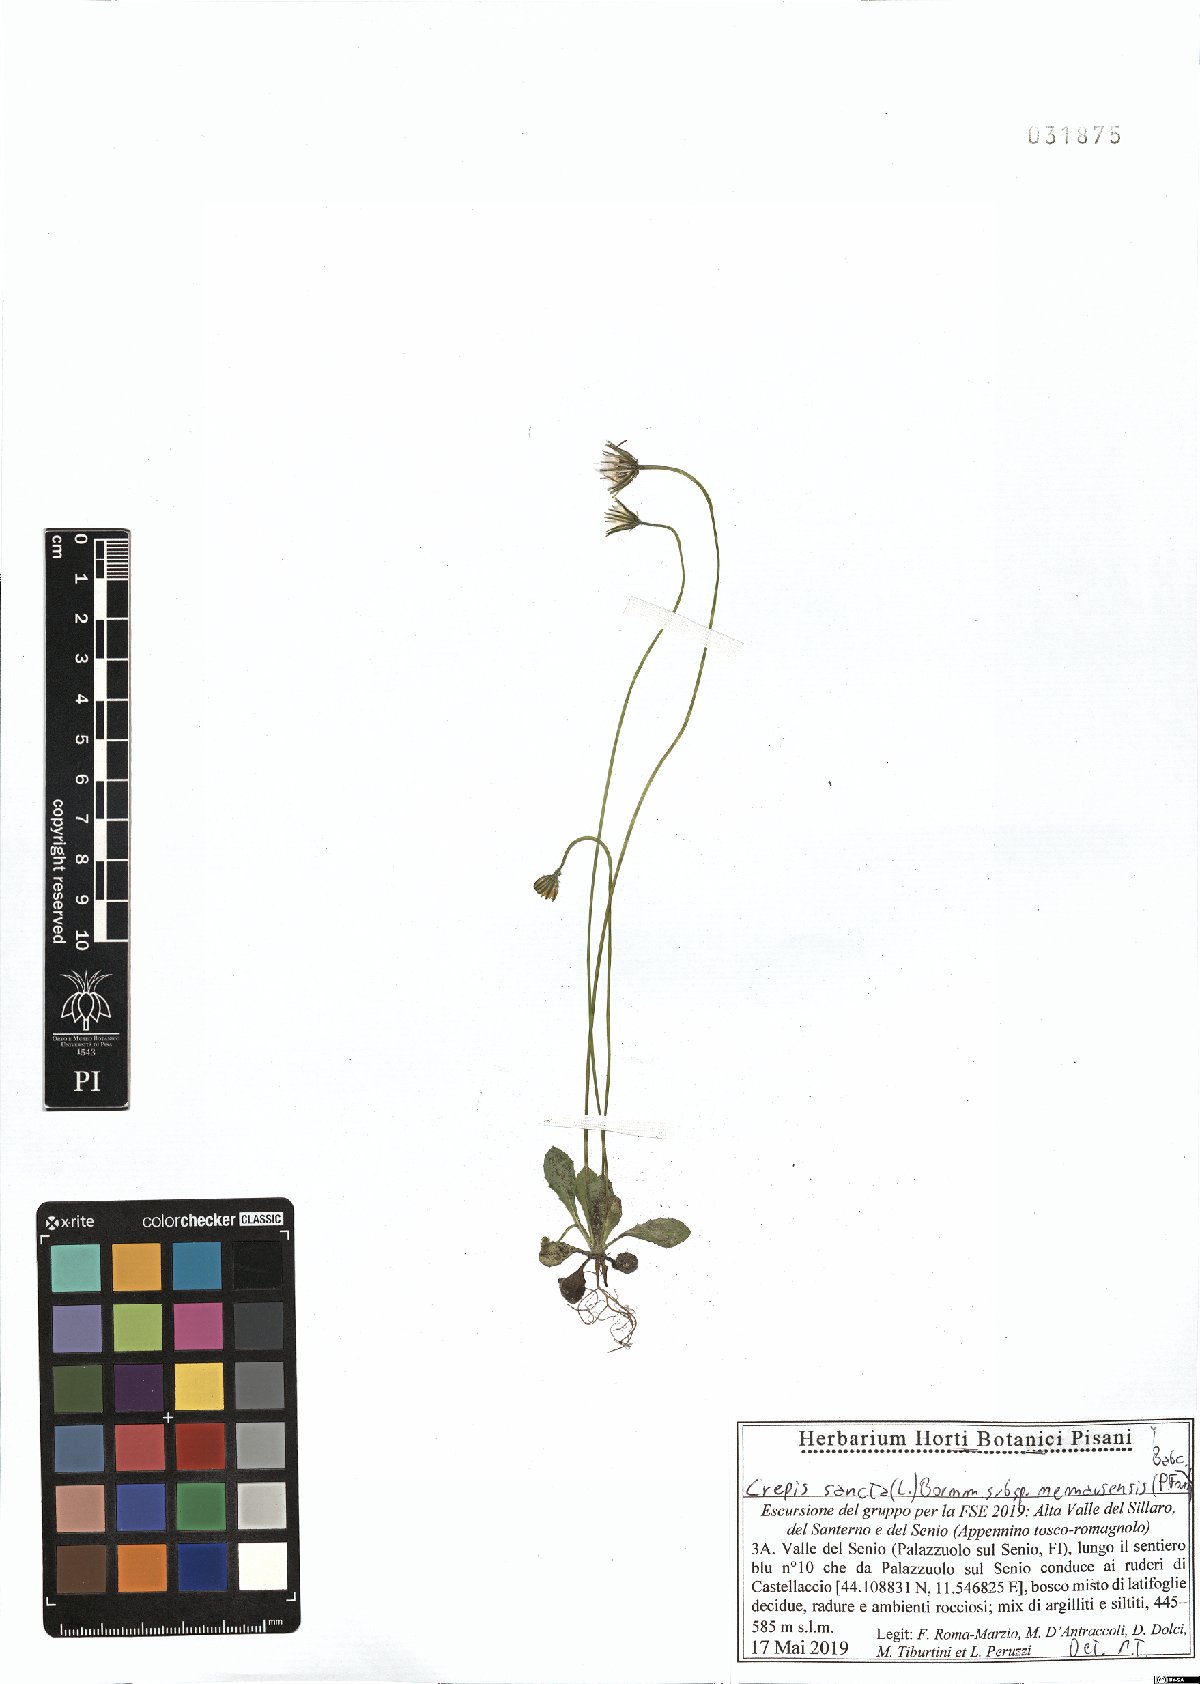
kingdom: Plantae
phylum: Tracheophyta
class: Magnoliopsida
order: Asterales
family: Asteraceae
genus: Crepis
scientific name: Crepis sancta
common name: Hawk's-beard
